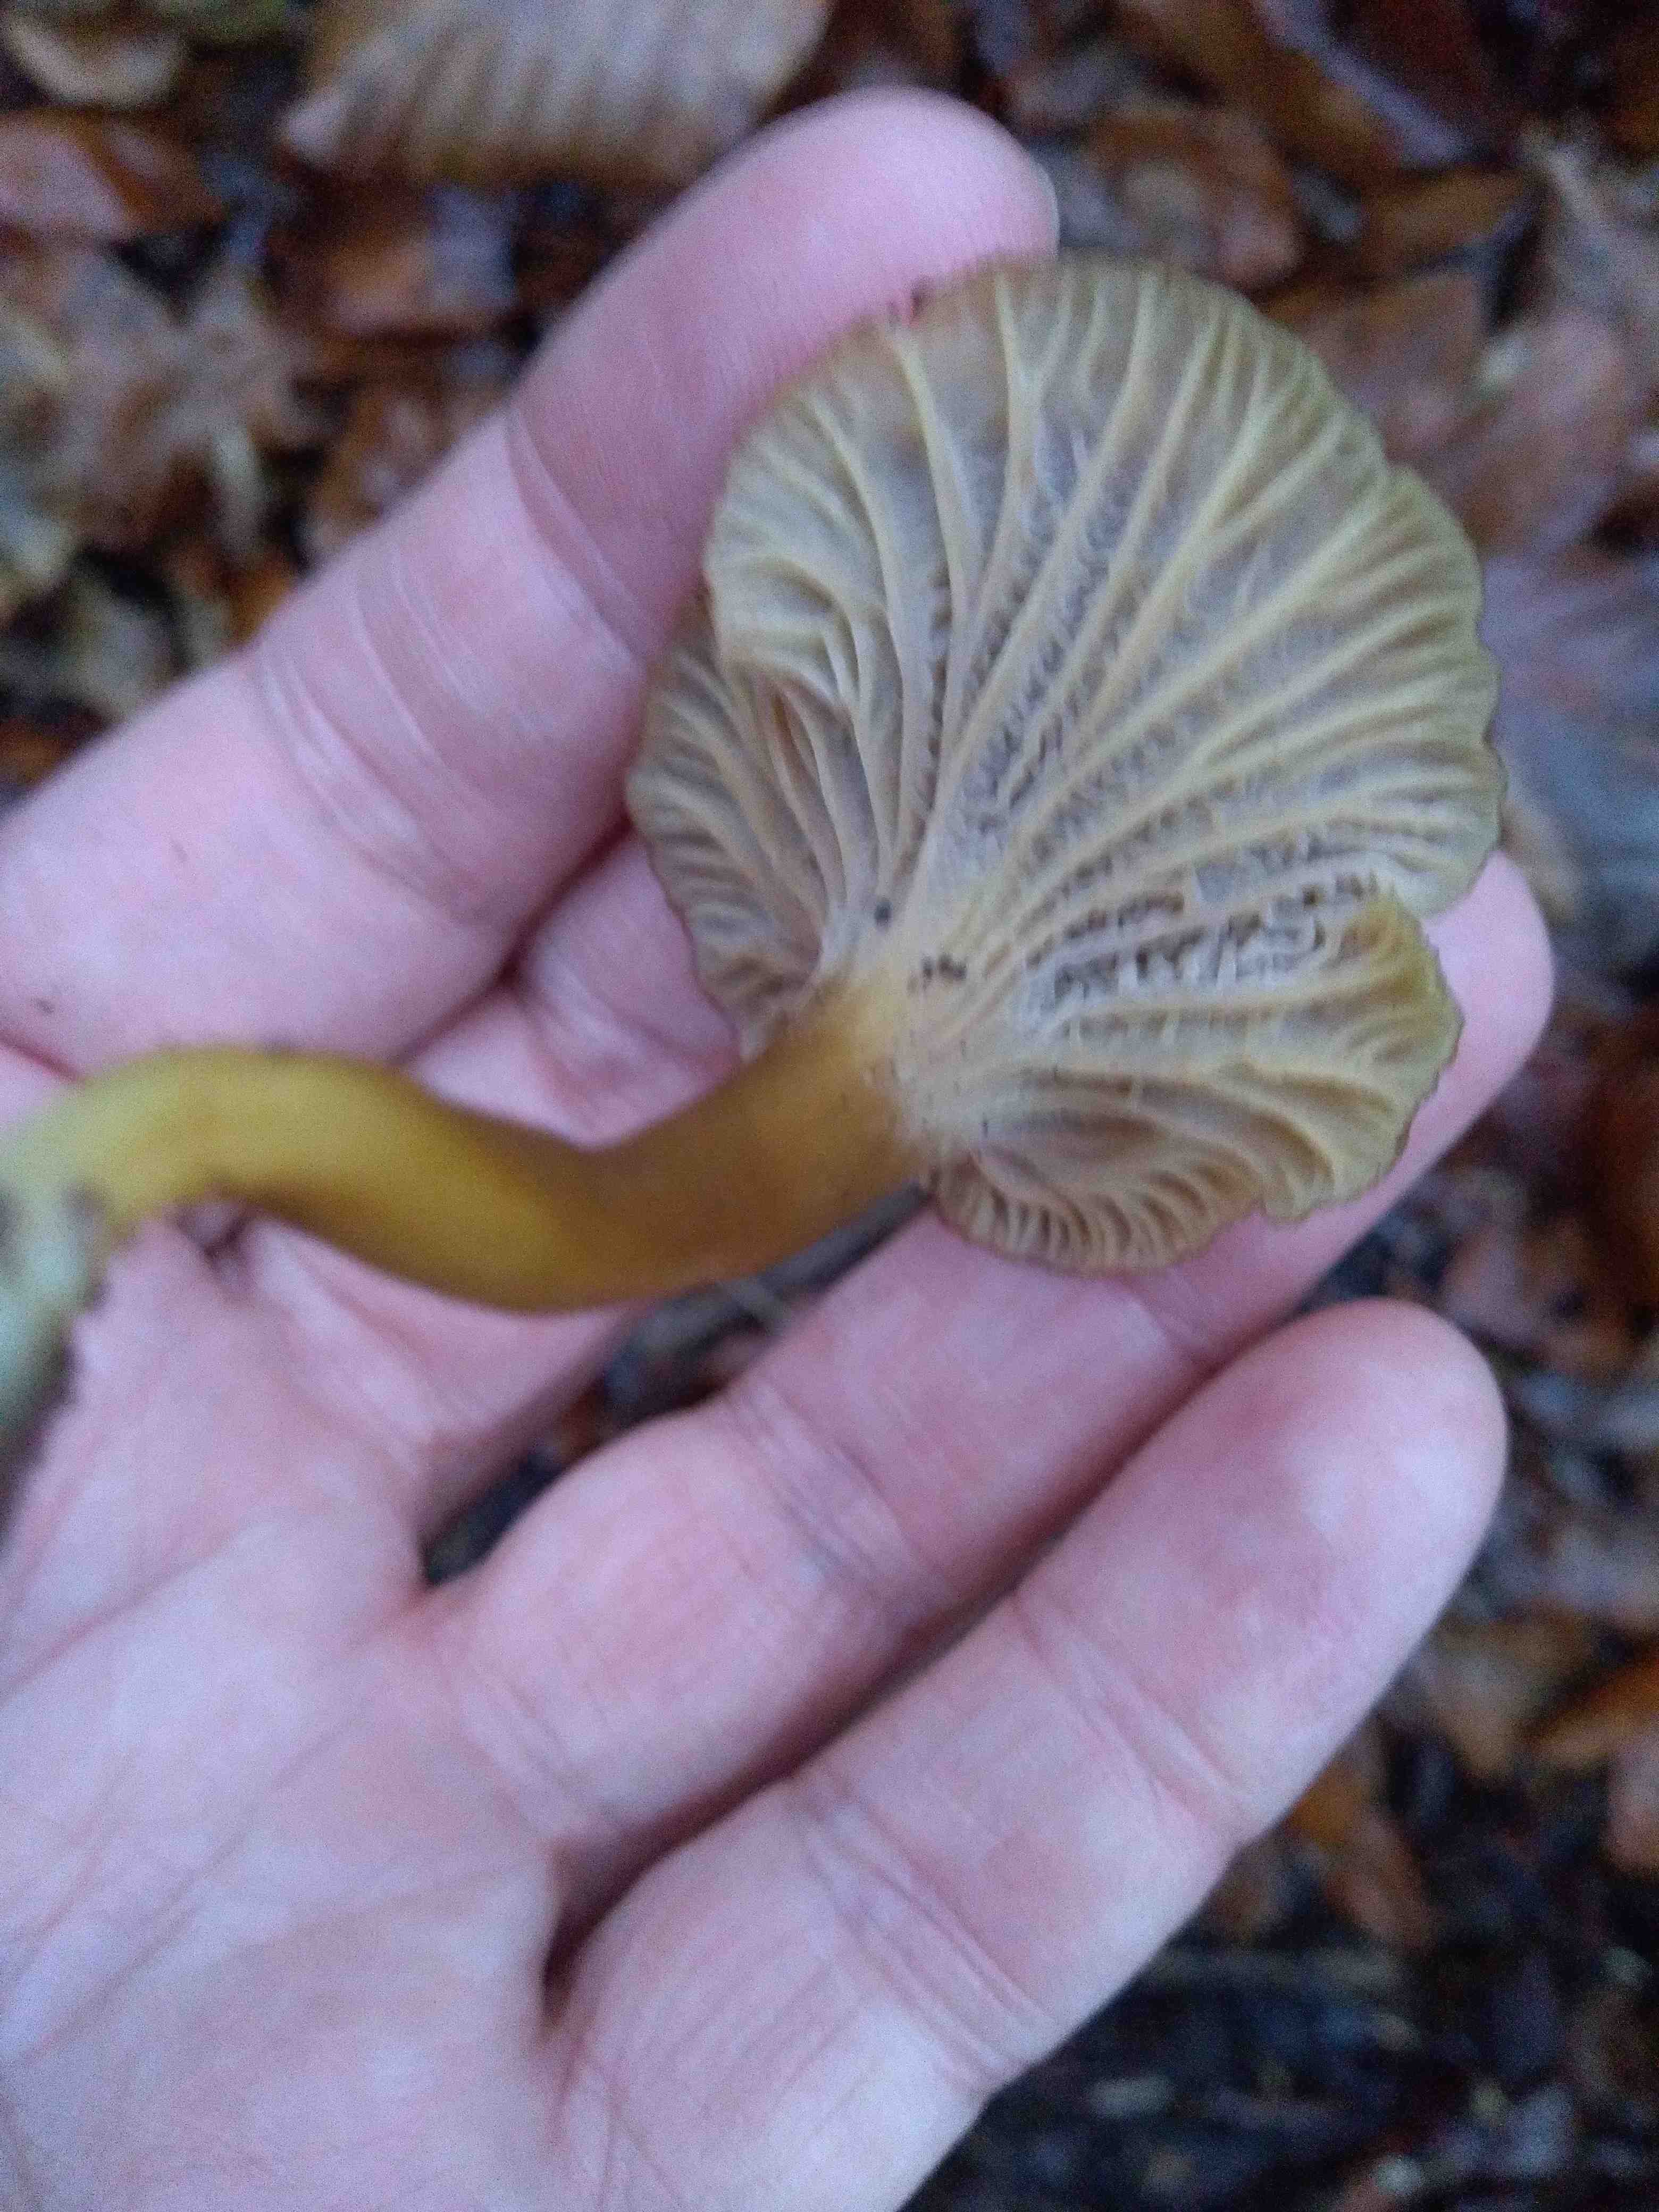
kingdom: Fungi
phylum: Basidiomycota
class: Agaricomycetes
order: Cantharellales
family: Hydnaceae
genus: Craterellus
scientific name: Craterellus tubaeformis
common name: tragt-kantarel
